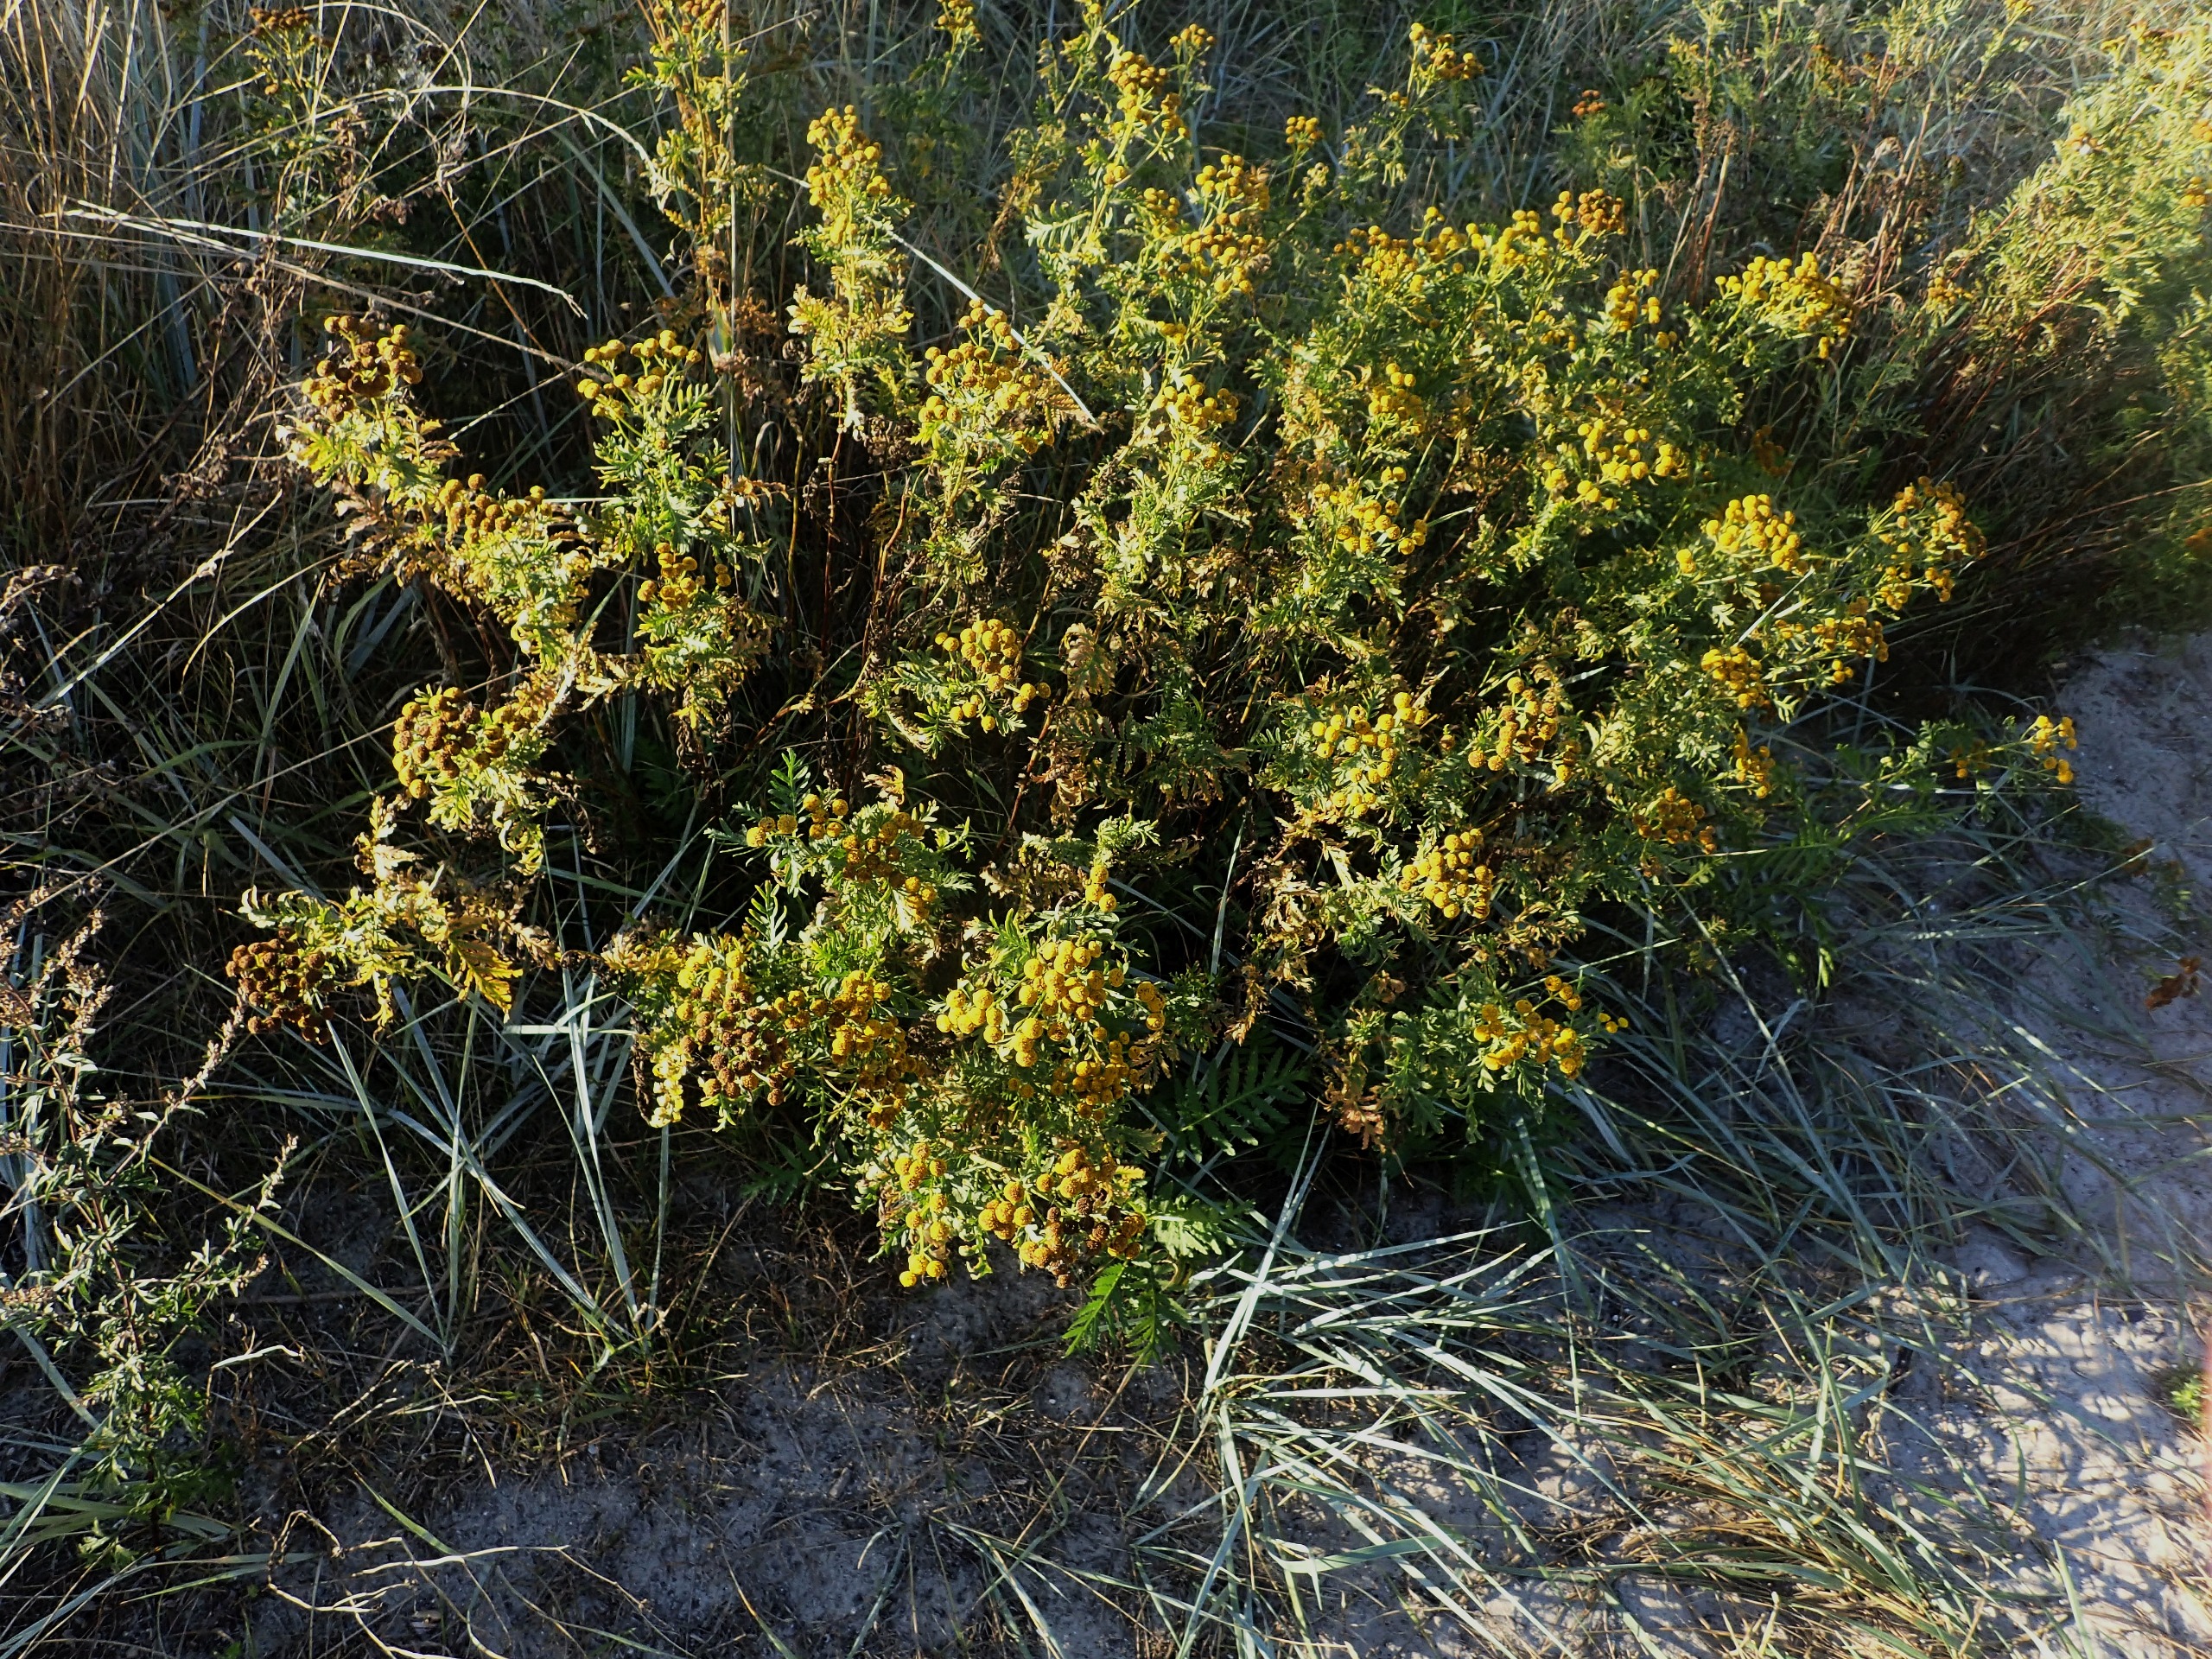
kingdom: Plantae
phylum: Tracheophyta
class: Magnoliopsida
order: Asterales
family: Asteraceae
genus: Tanacetum
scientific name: Tanacetum vulgare
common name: Rejnfan
